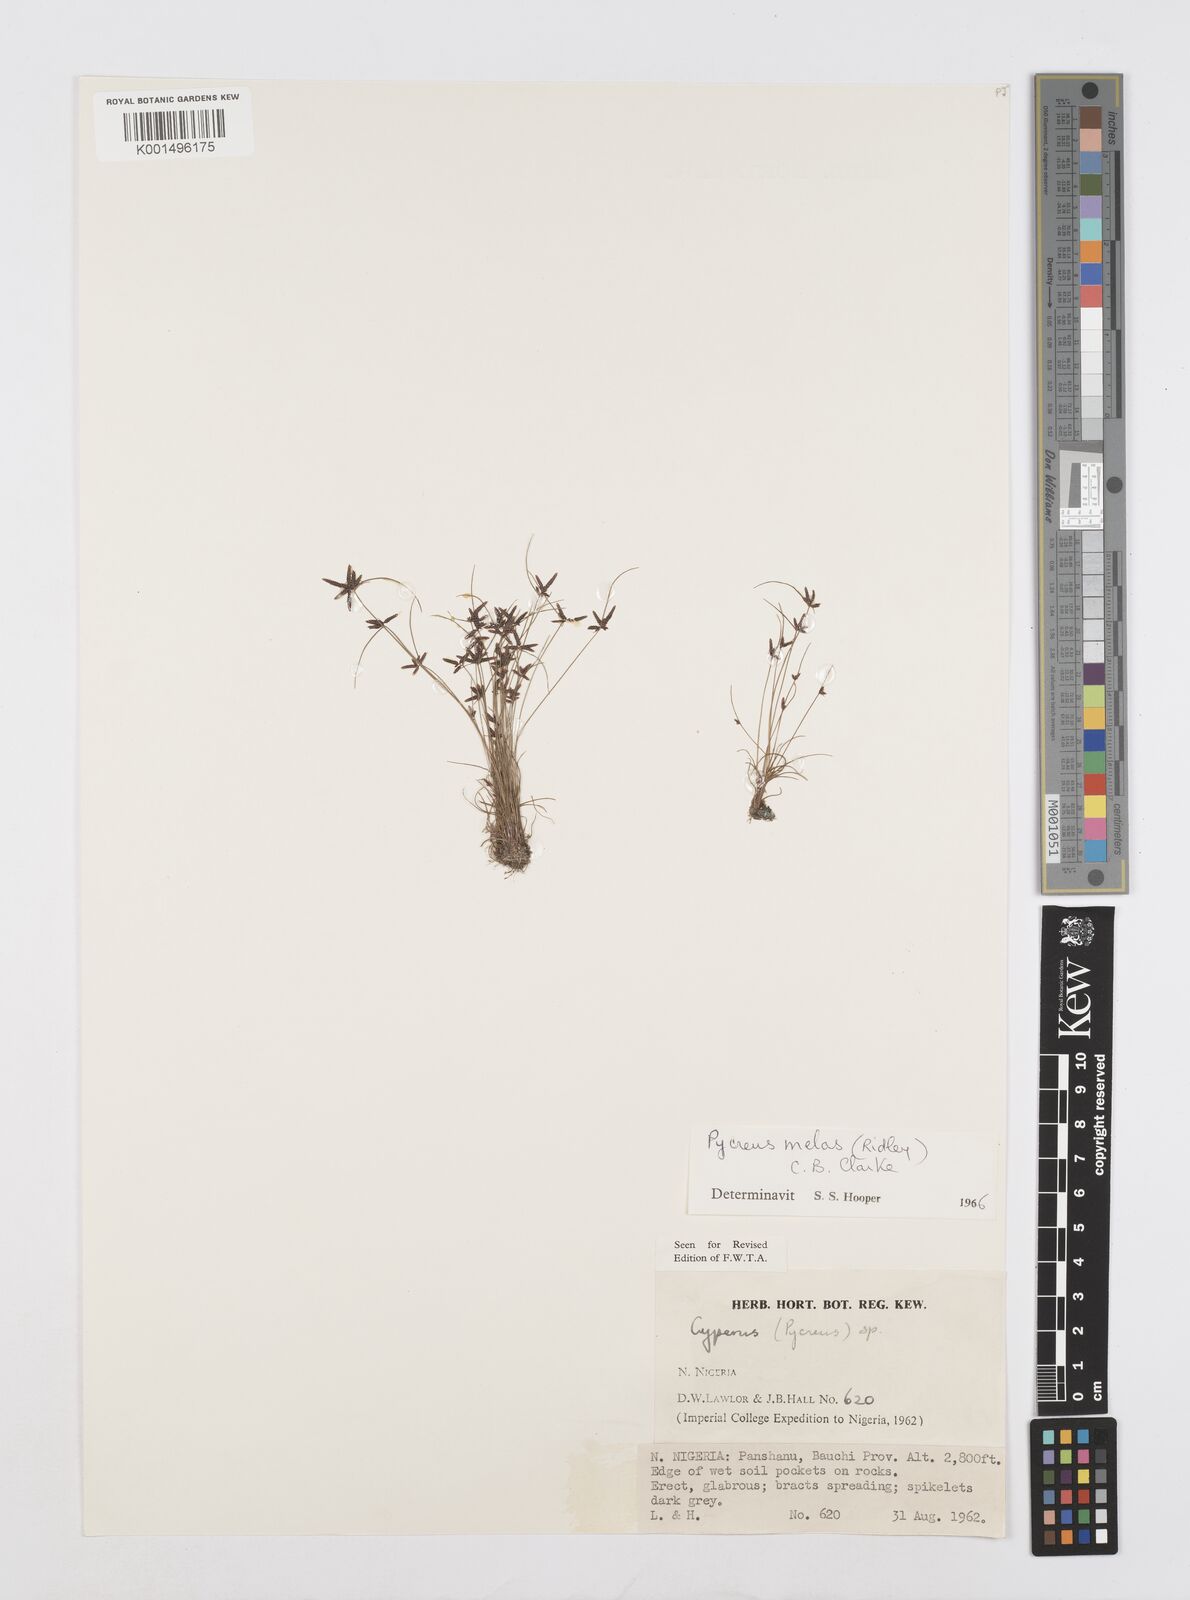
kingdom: Plantae
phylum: Tracheophyta
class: Liliopsida
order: Poales
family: Cyperaceae
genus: Cyperus
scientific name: Cyperus melas
